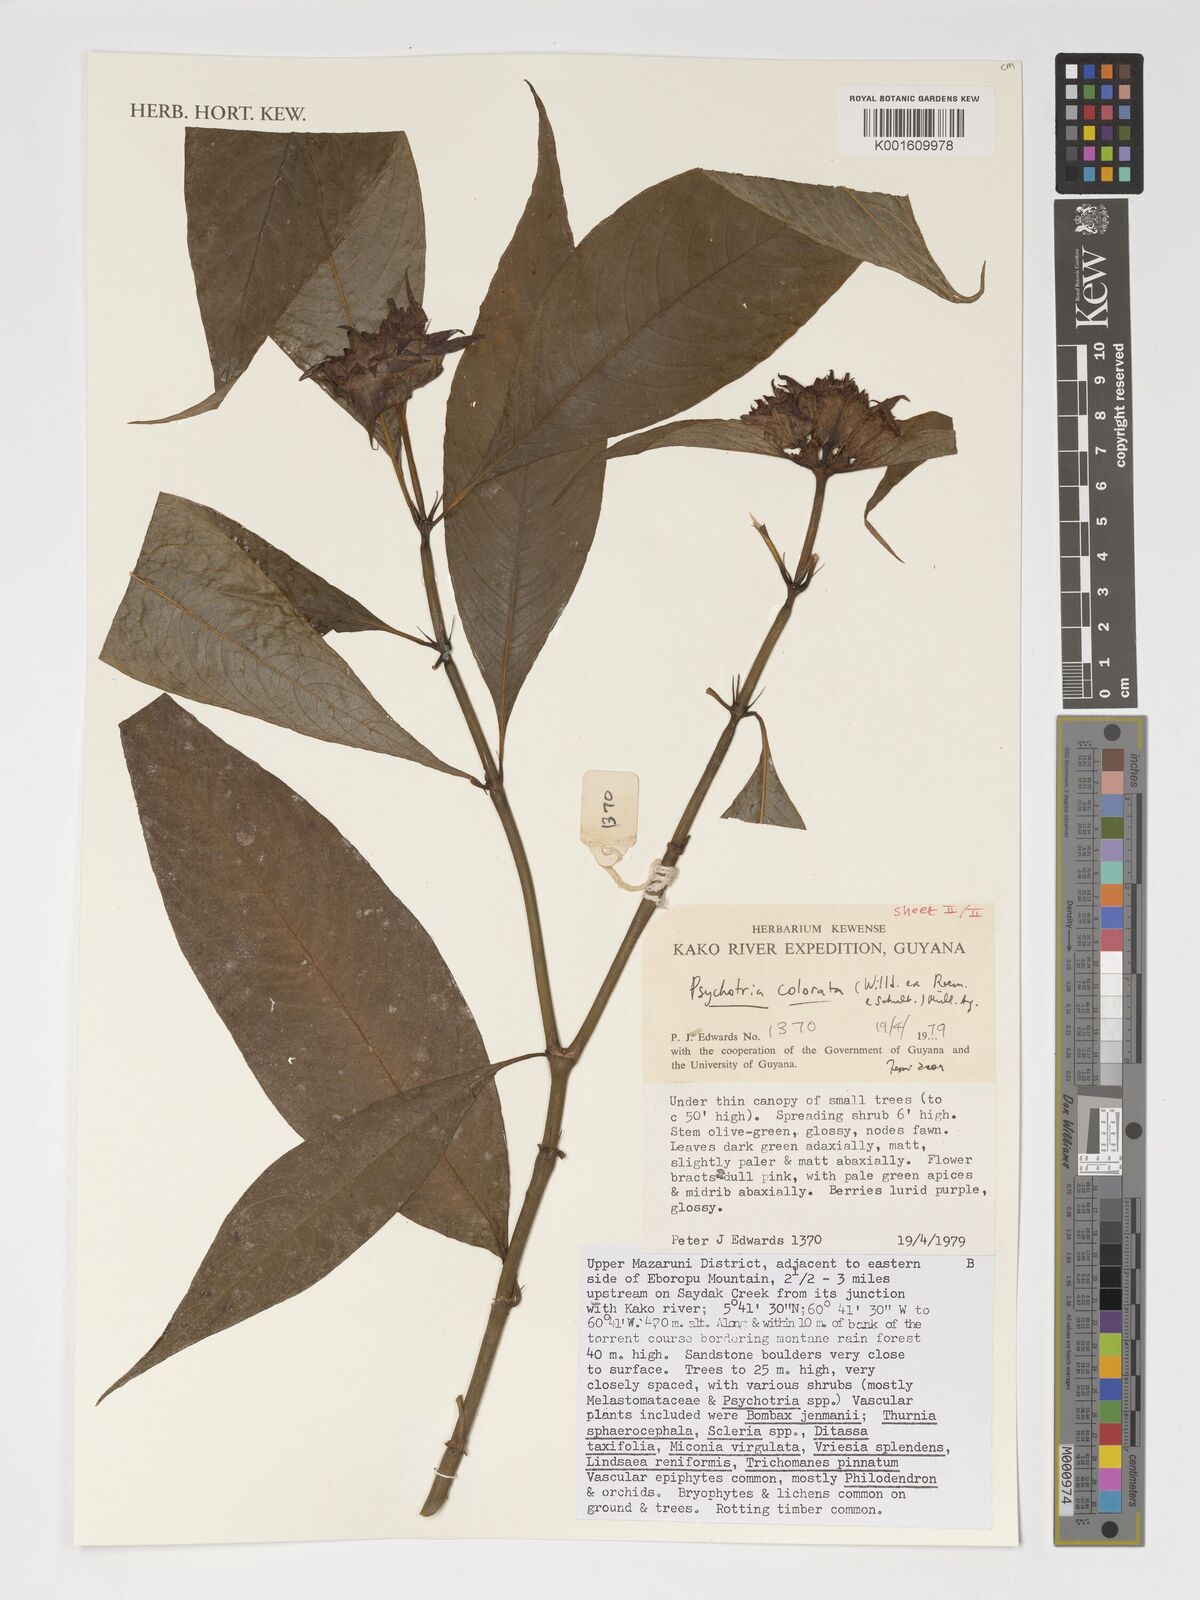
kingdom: Plantae
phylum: Tracheophyta
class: Magnoliopsida
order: Gentianales
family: Rubiaceae
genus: Palicourea
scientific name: Palicourea colorata
